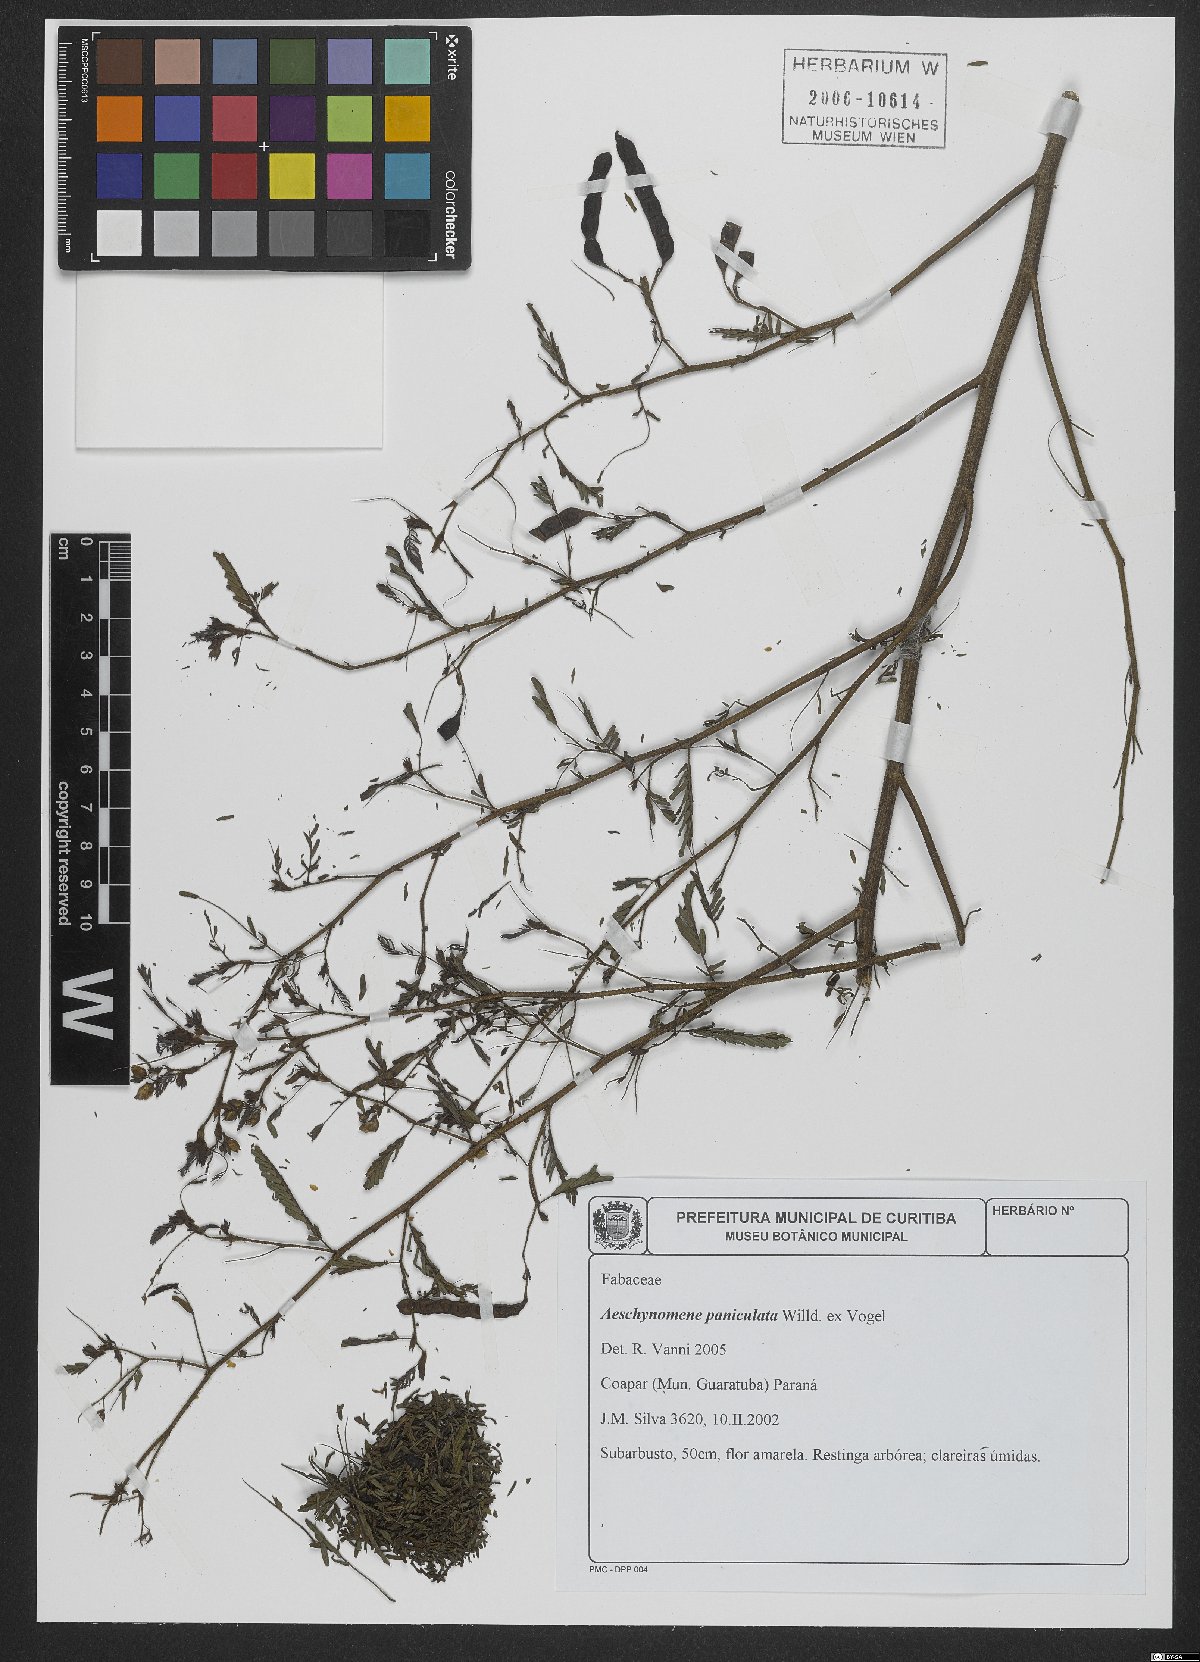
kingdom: Plantae
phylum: Tracheophyta
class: Magnoliopsida
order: Fabales
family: Fabaceae
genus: Ctenodon
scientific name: Ctenodon paniculatus
